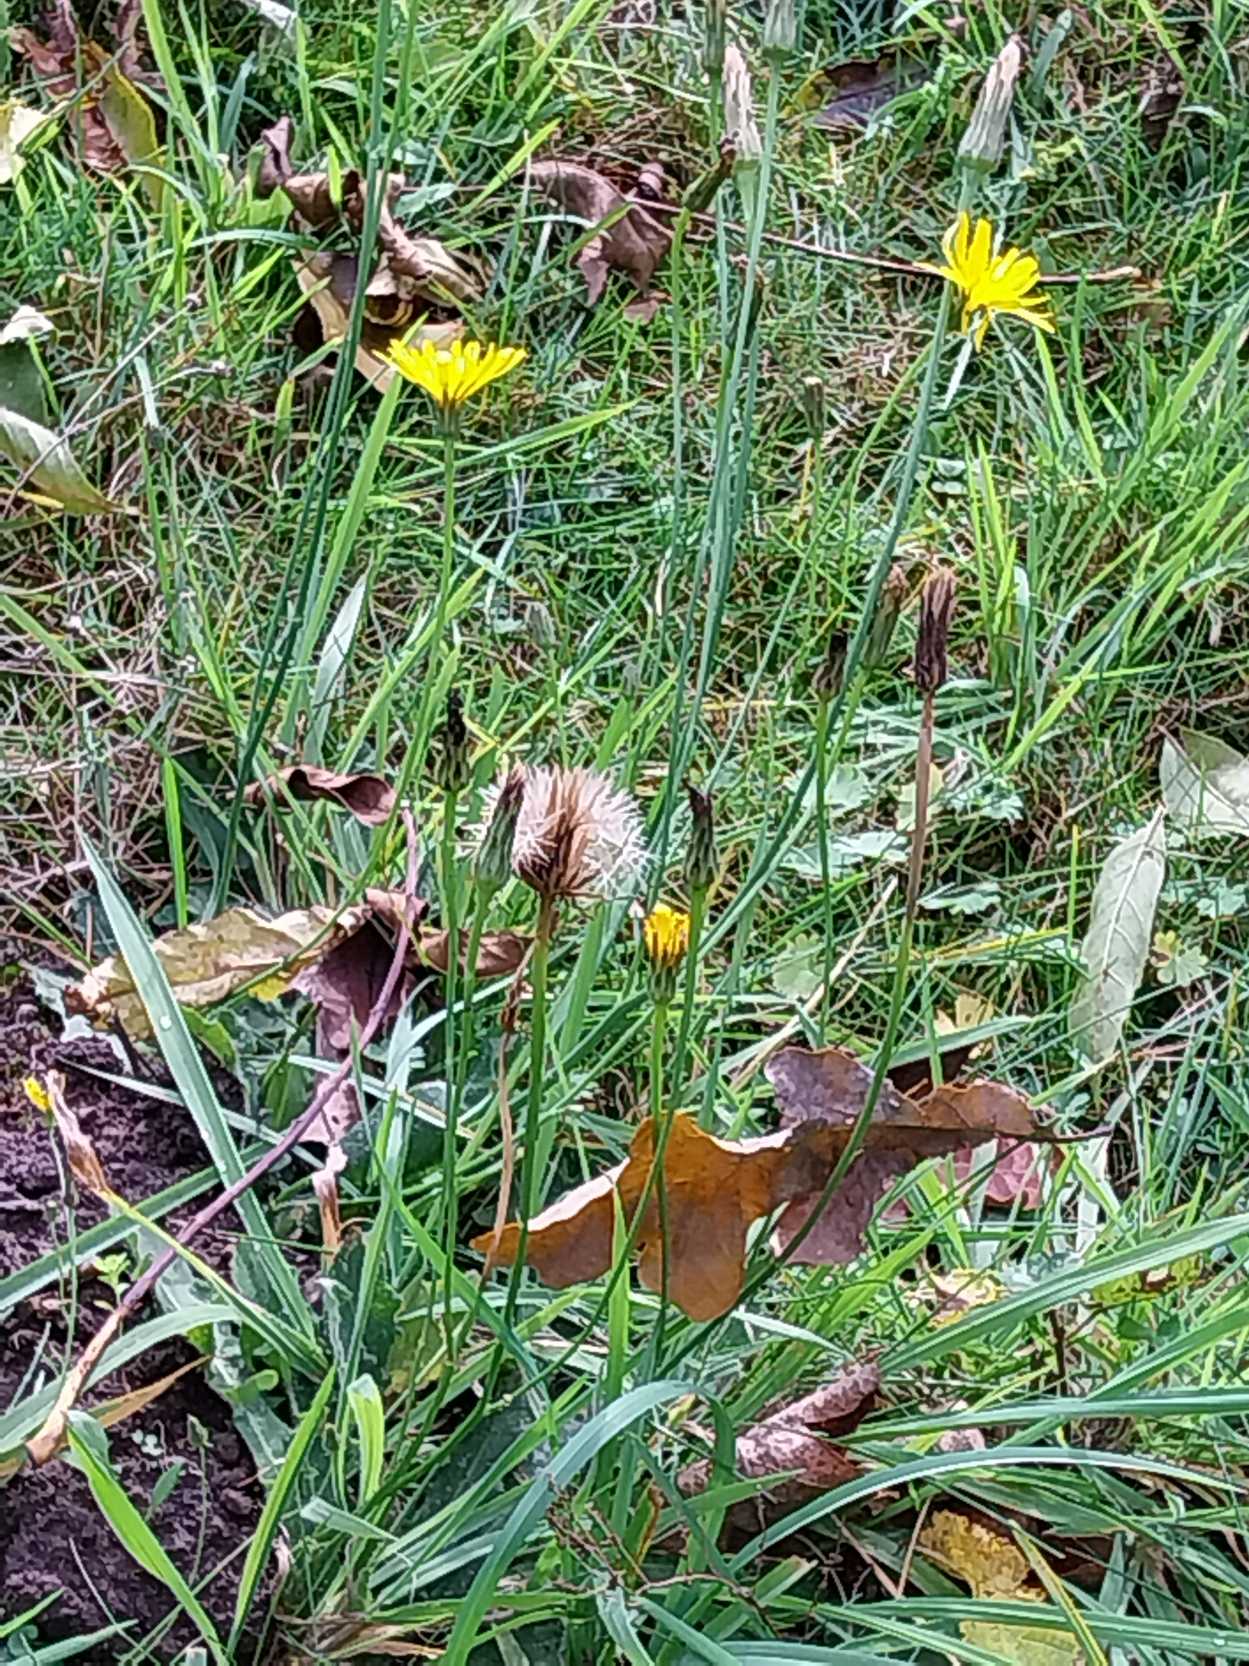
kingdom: Plantae
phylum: Tracheophyta
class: Magnoliopsida
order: Asterales
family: Asteraceae
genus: Hypochaeris
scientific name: Hypochaeris radicata
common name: Almindelig kongepen
